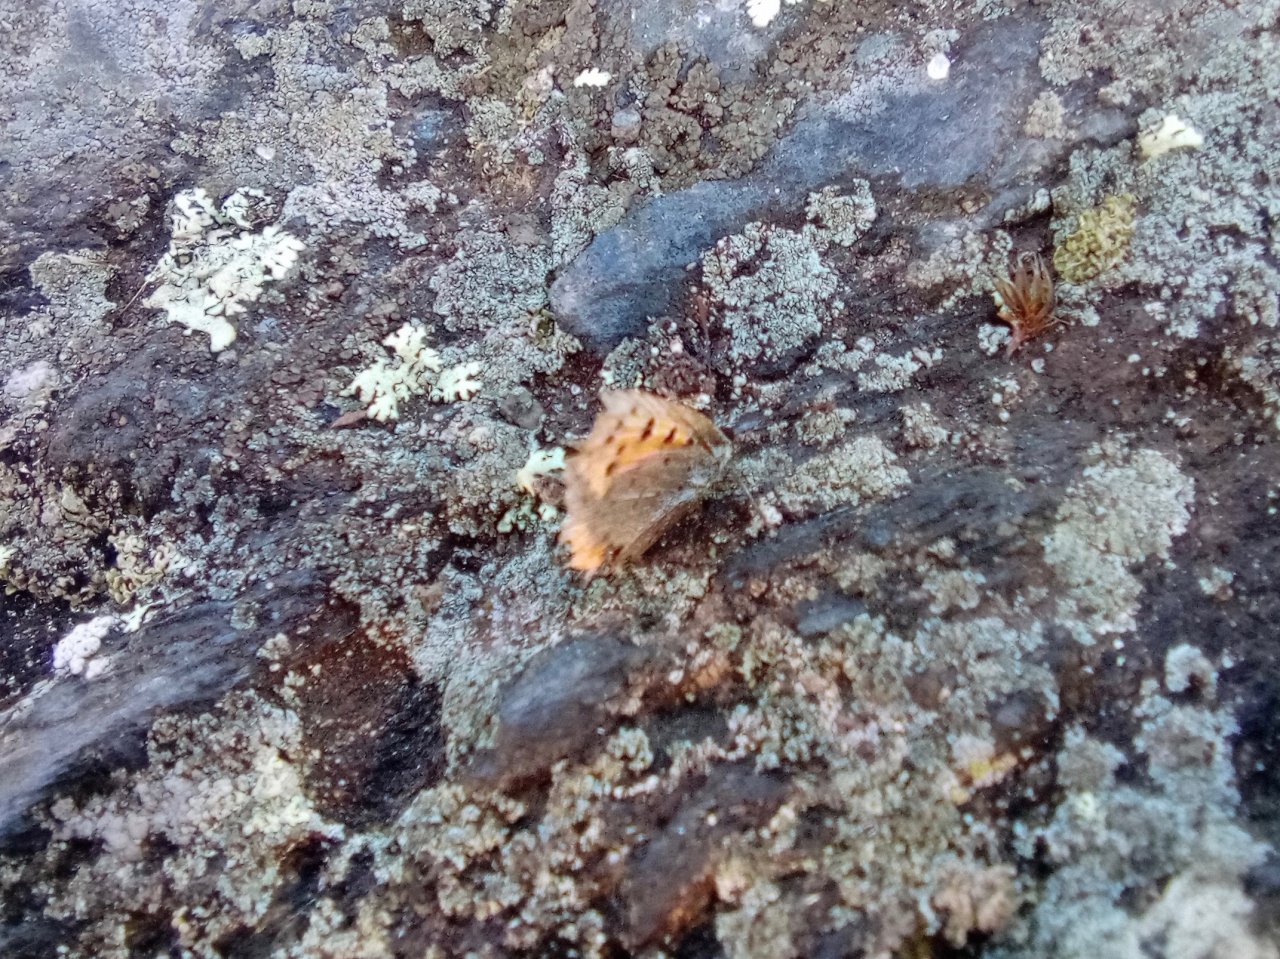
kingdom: Animalia
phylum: Arthropoda
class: Insecta
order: Lepidoptera
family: Lycaenidae
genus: Lycaena
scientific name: Lycaena phlaeas
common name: American Copper
